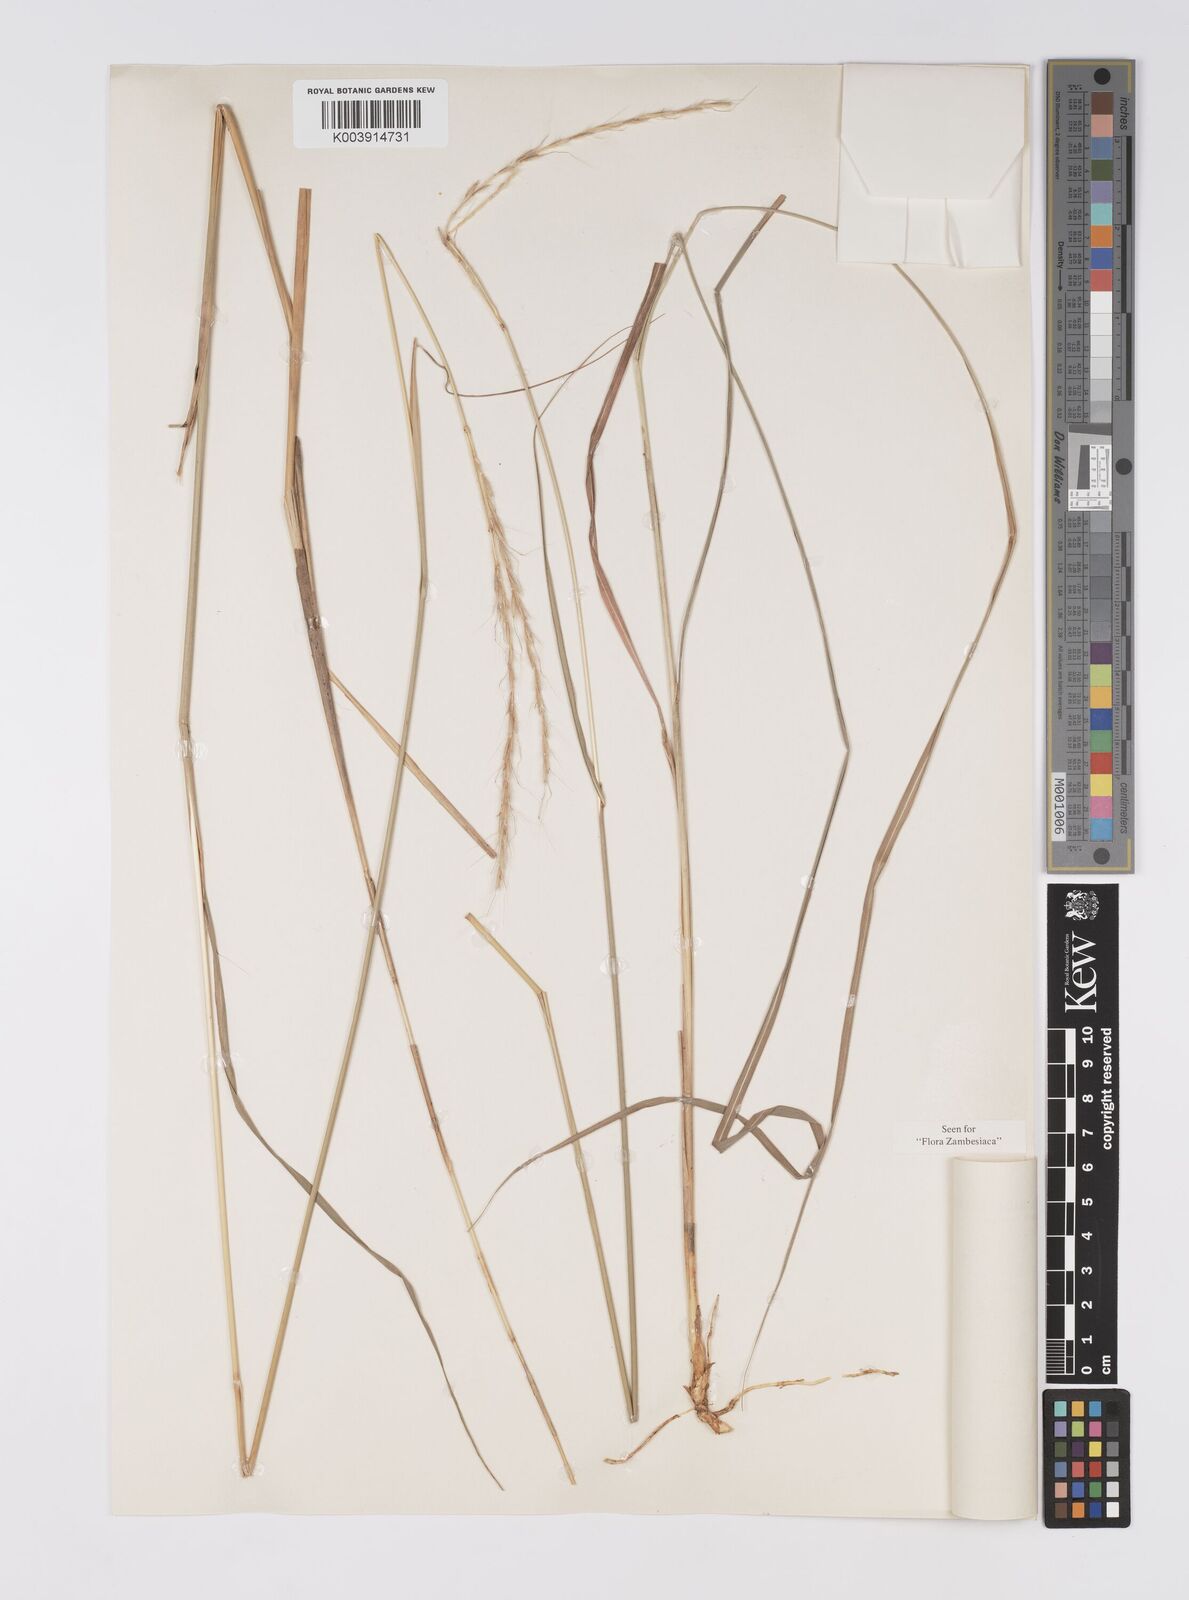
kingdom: Plantae
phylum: Tracheophyta
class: Liliopsida
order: Poales
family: Poaceae
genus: Homozeugos
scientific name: Homozeugos eylesii
